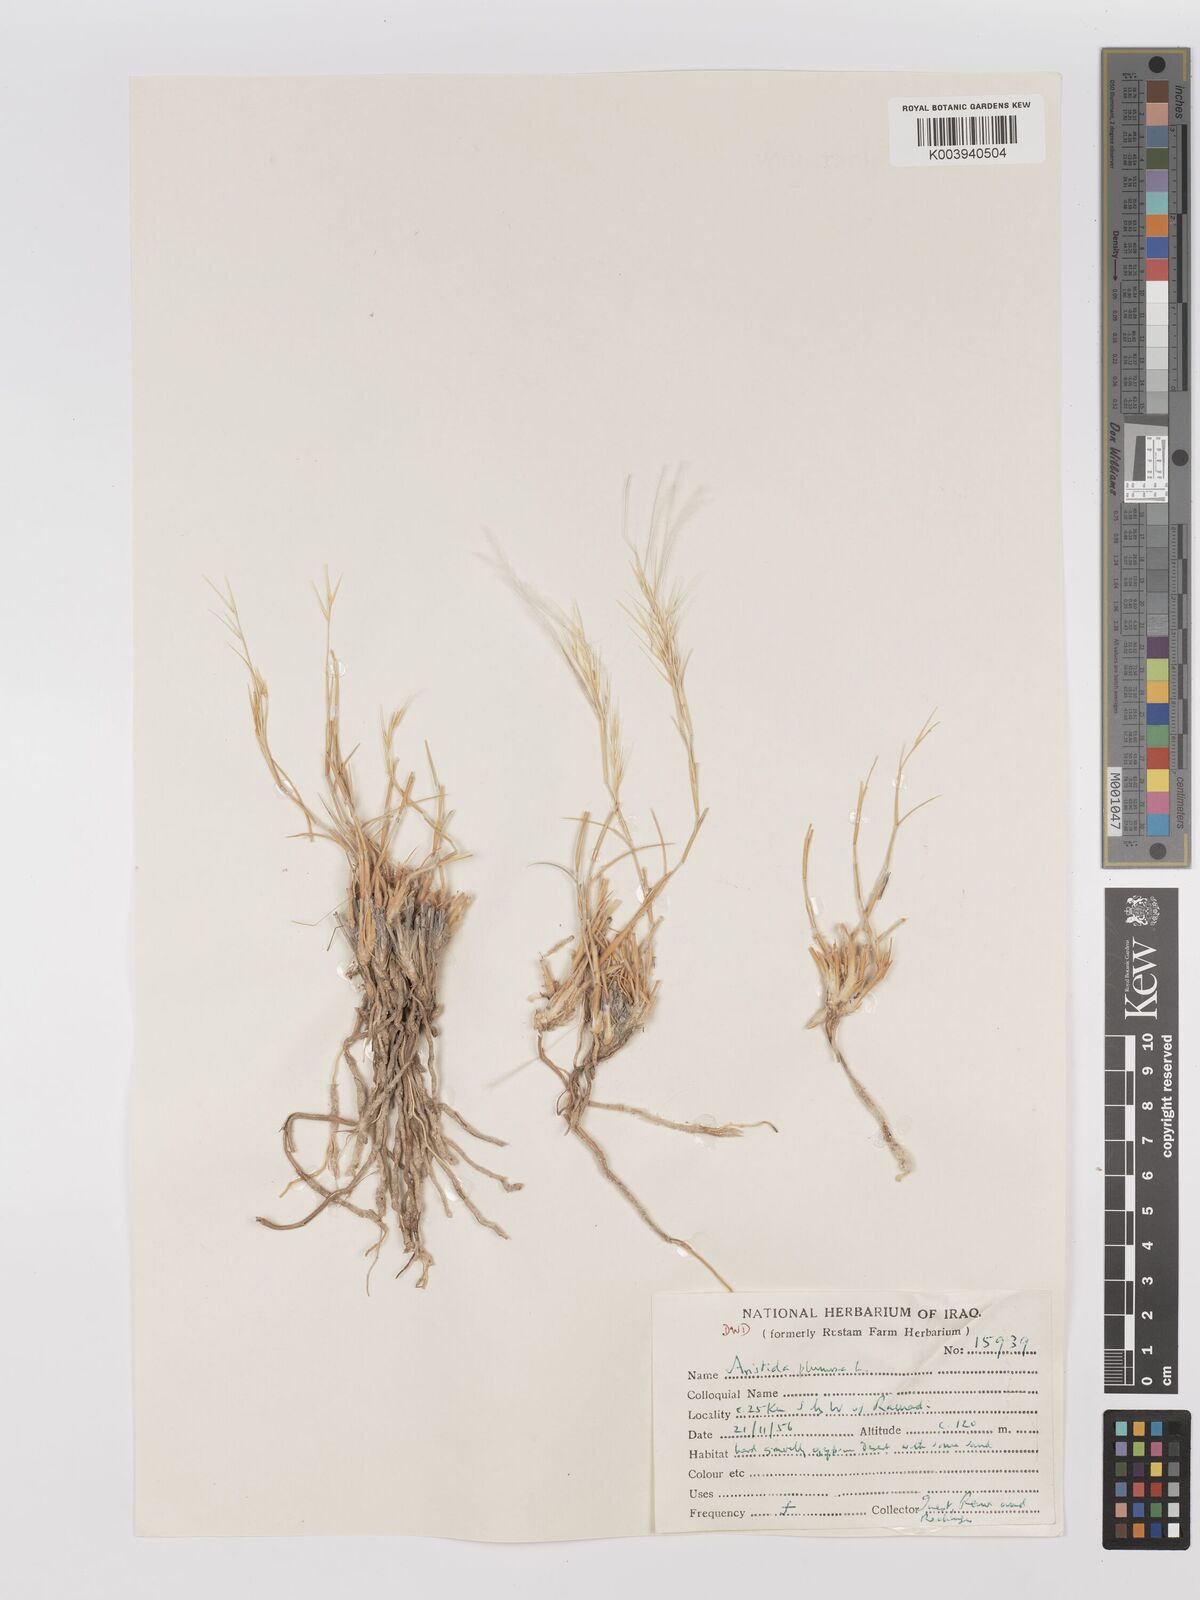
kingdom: Plantae
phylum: Tracheophyta
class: Liliopsida
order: Poales
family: Poaceae
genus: Stipagrostis
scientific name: Stipagrostis plumosa
